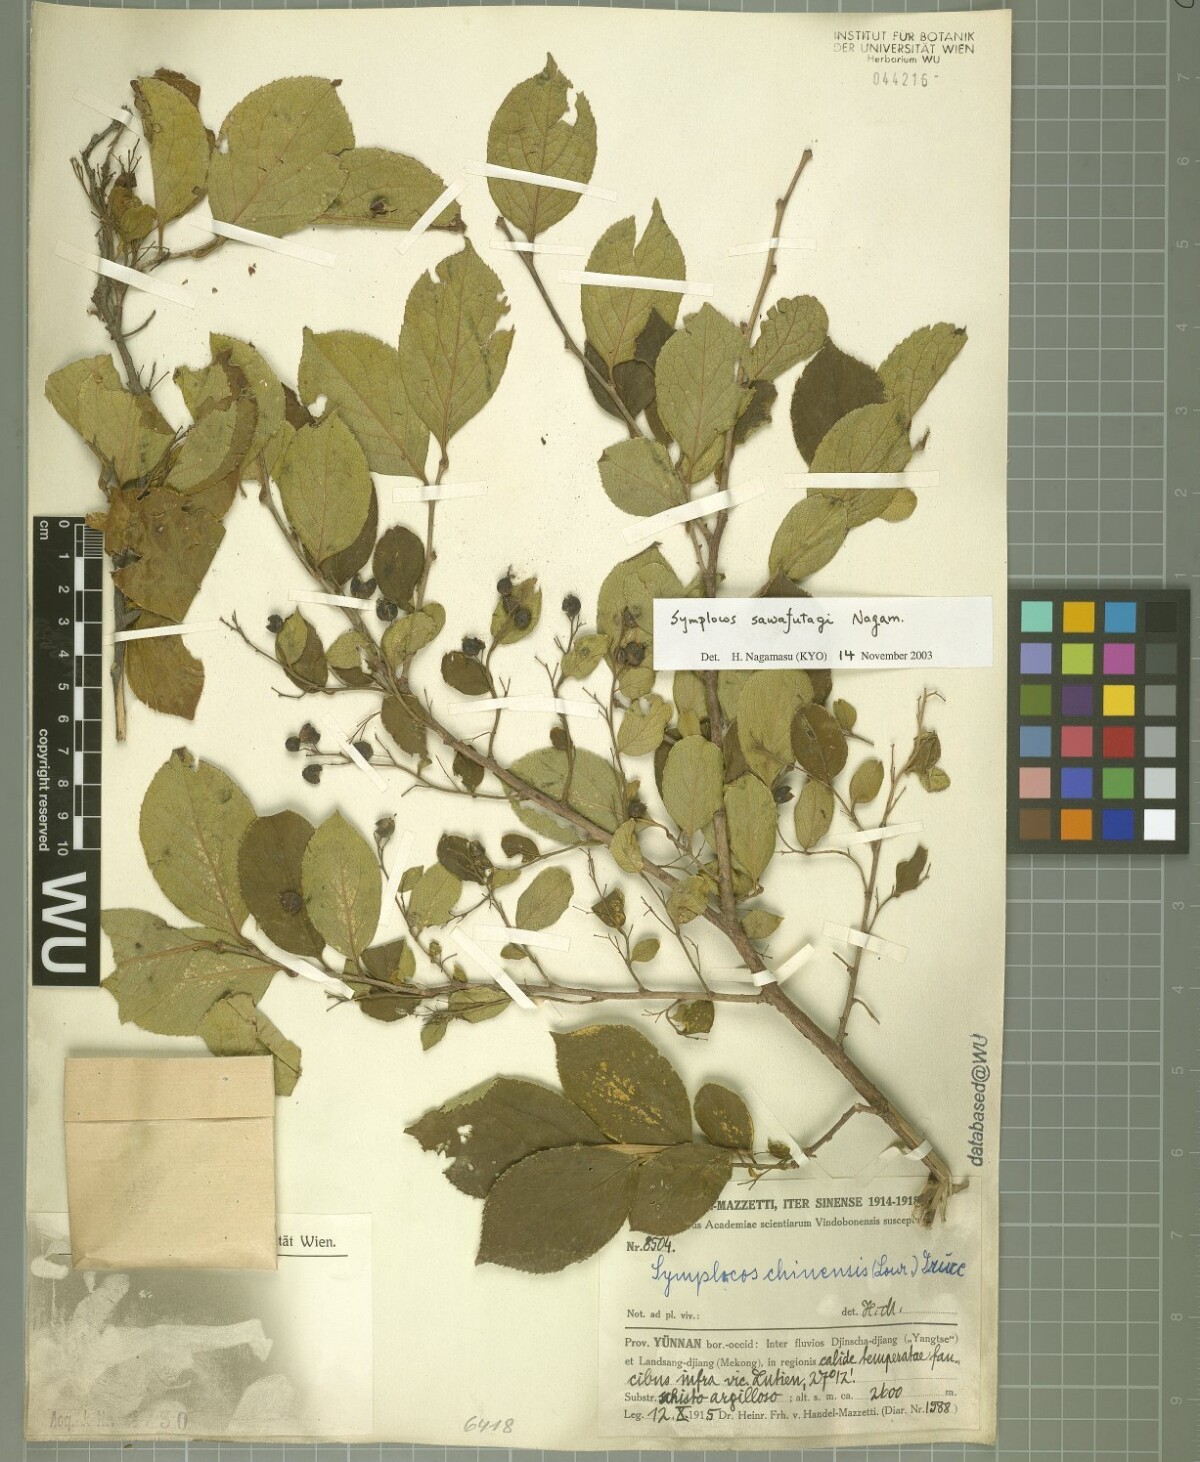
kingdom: Plantae
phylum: Tracheophyta
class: Magnoliopsida
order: Ericales
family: Symplocaceae
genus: Symplocos
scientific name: Symplocos sawafutagi
